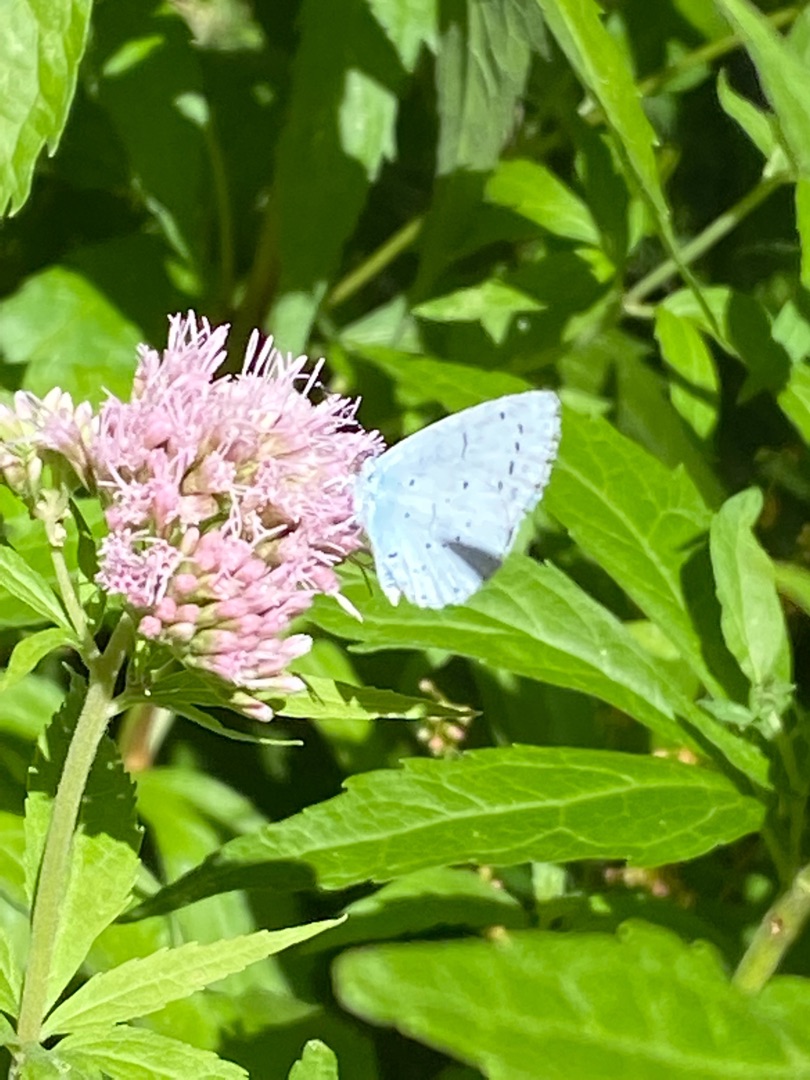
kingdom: Animalia
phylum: Arthropoda
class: Insecta
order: Lepidoptera
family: Lycaenidae
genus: Celastrina
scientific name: Celastrina argiolus
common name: Skovblåfugl
